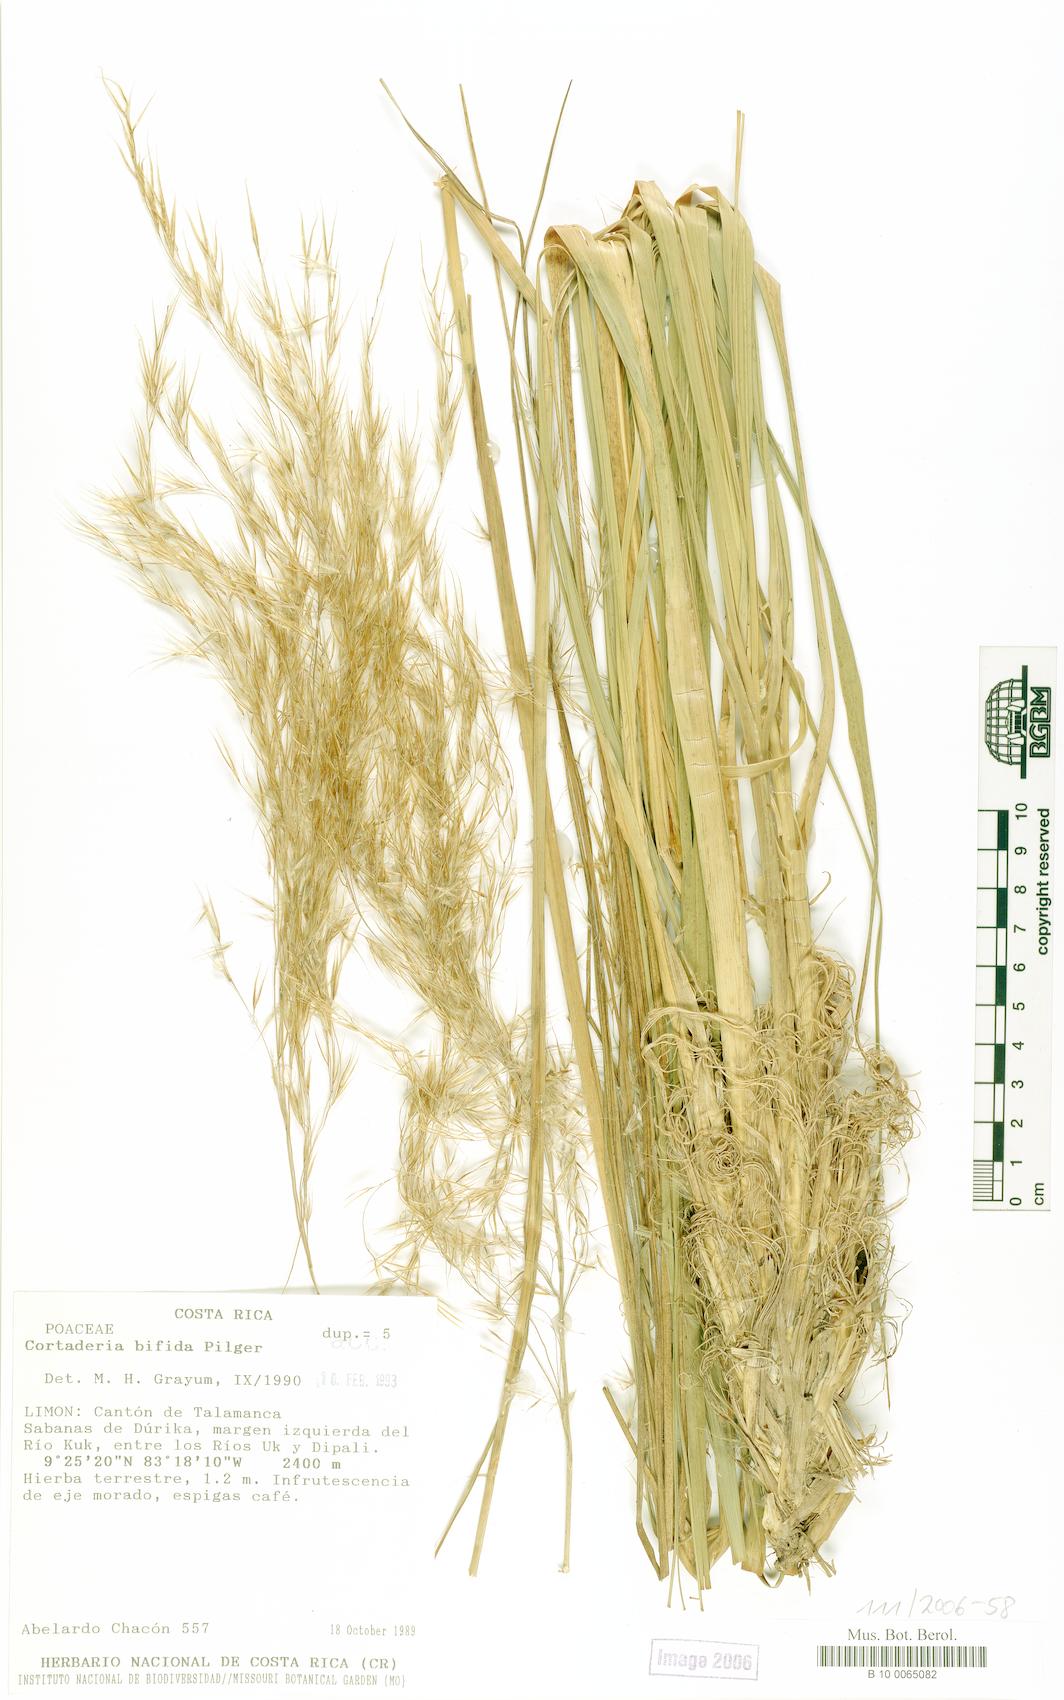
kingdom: Plantae
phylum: Tracheophyta
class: Liliopsida
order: Poales
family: Poaceae
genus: Cortaderia
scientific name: Cortaderia bifida
